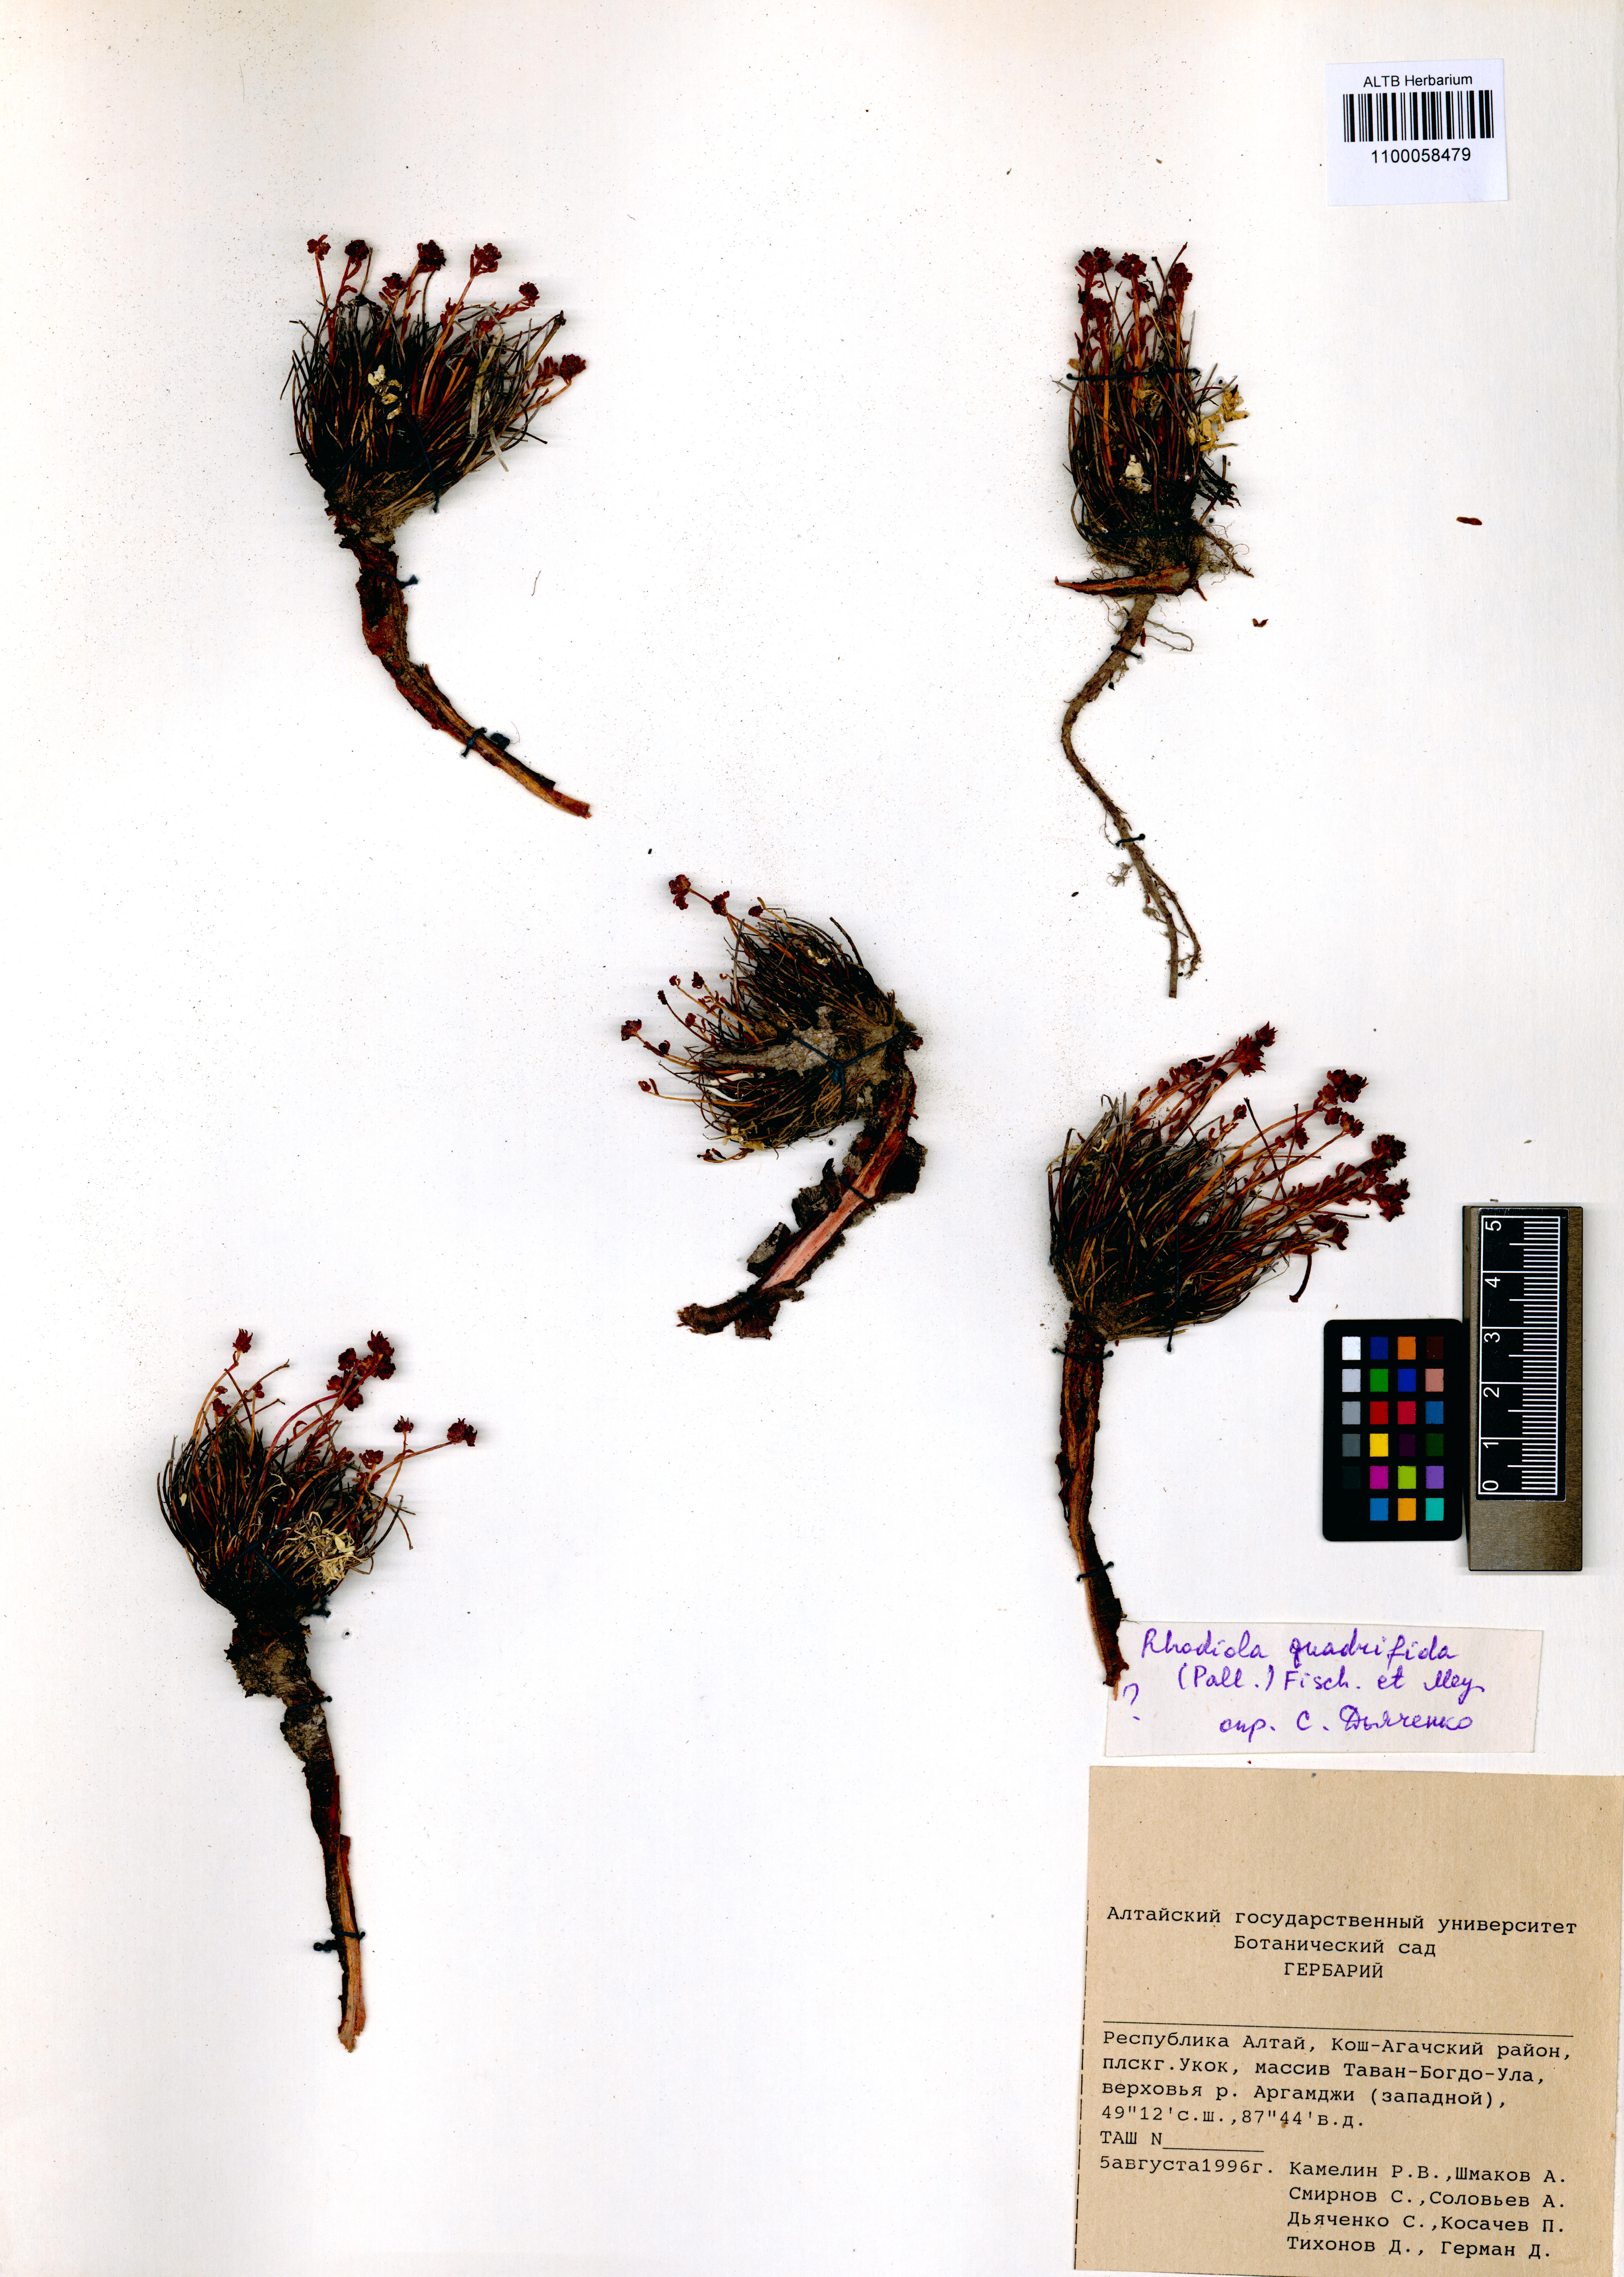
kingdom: Plantae
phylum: Tracheophyta
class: Magnoliopsida
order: Saxifragales
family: Crassulaceae
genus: Rhodiola
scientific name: Rhodiola quadrifida
